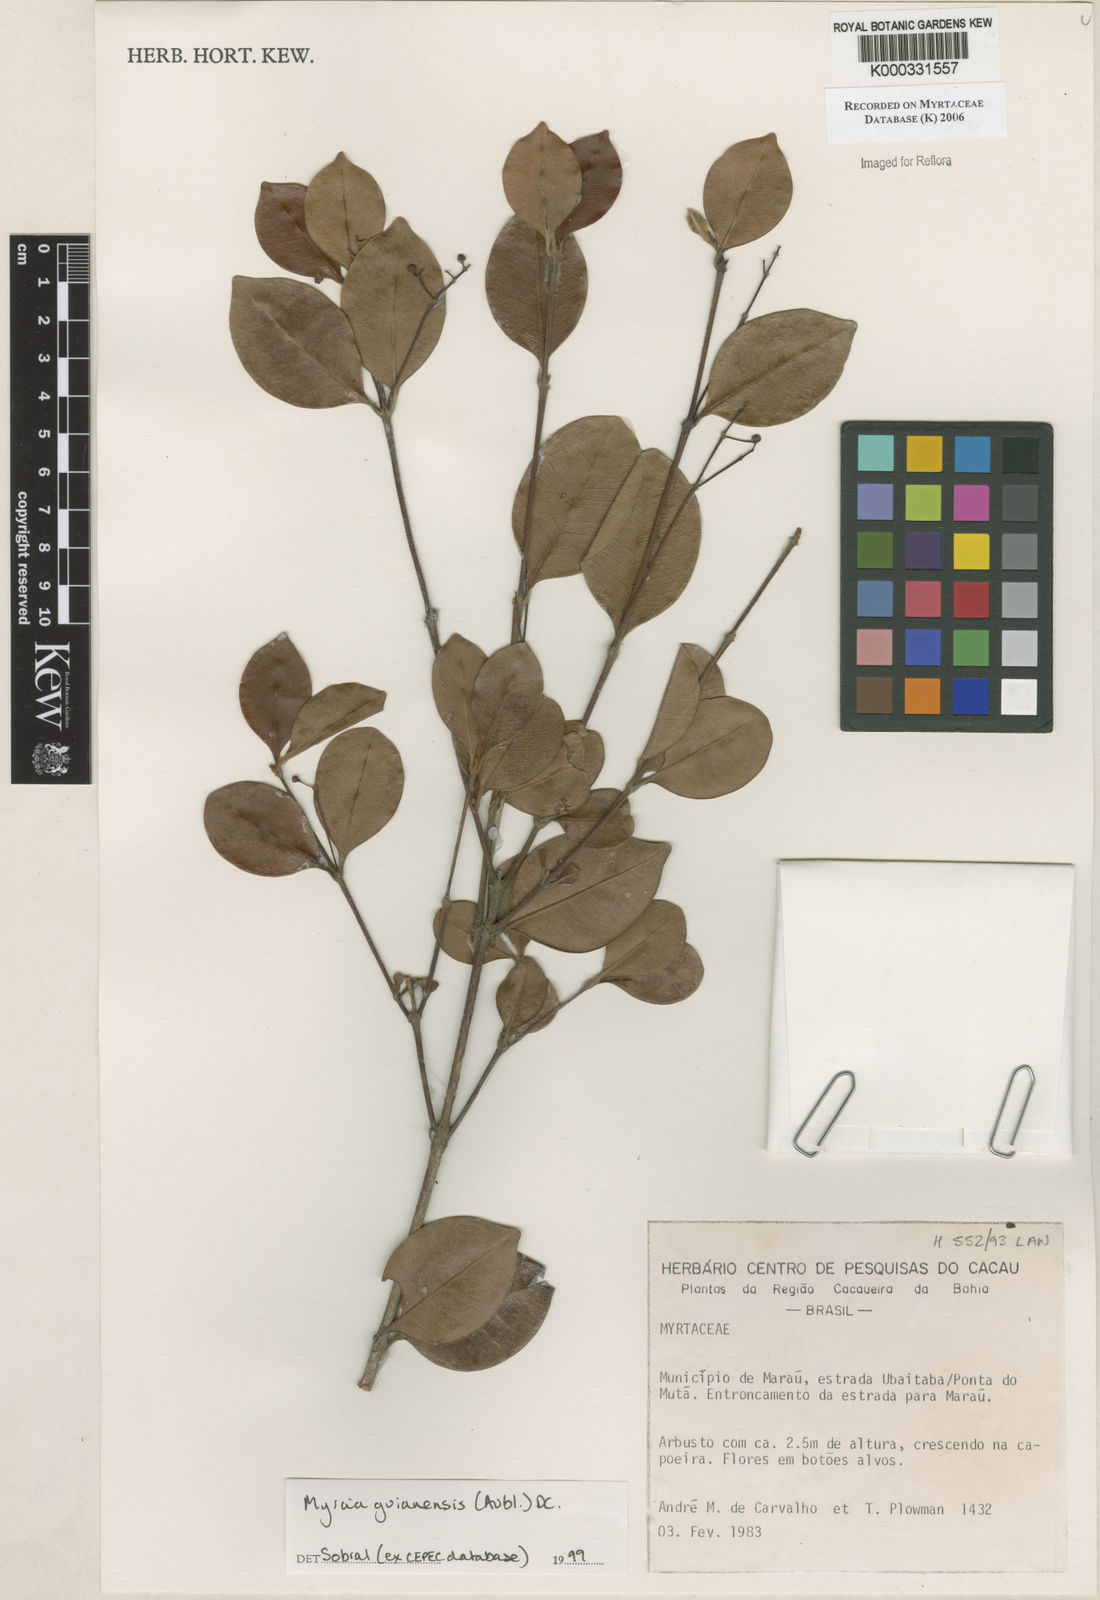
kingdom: Plantae
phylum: Tracheophyta
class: Magnoliopsida
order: Myrtales
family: Myrtaceae
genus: Myrcia
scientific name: Myrcia
